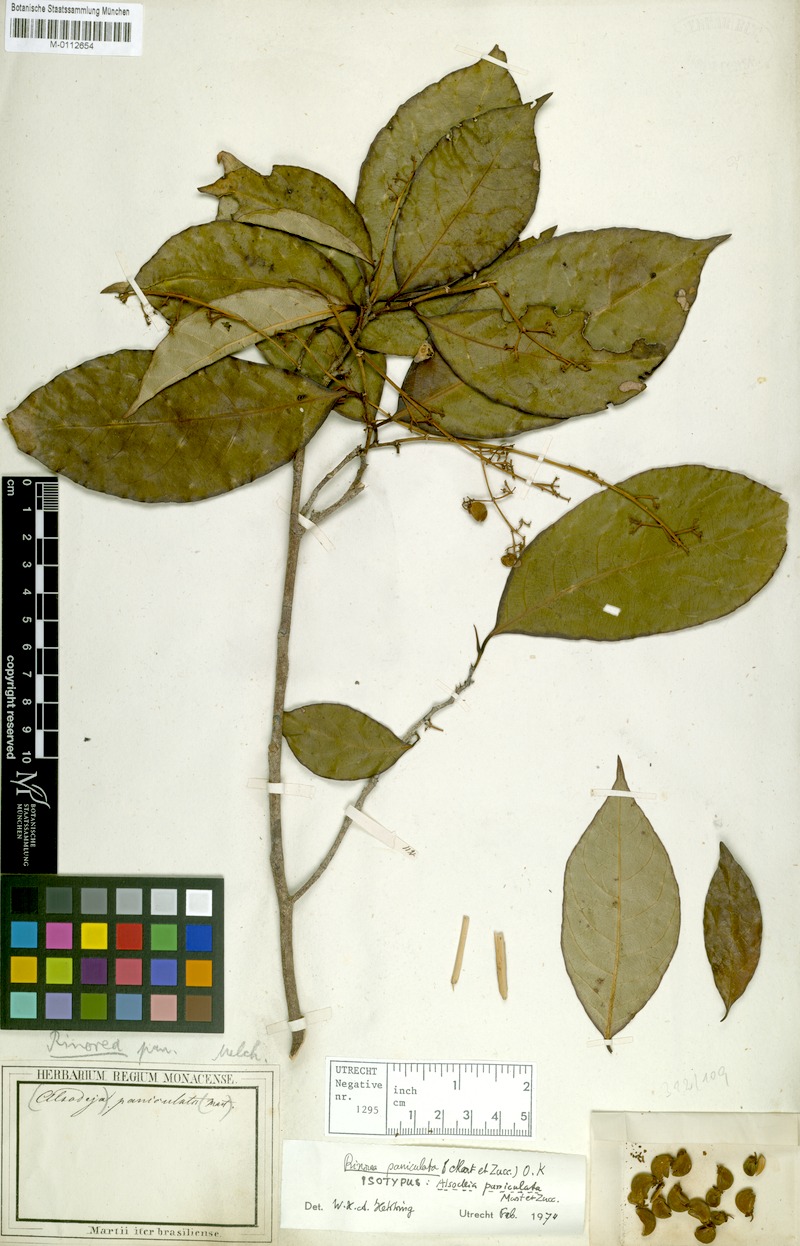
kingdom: Plantae
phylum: Tracheophyta
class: Magnoliopsida
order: Malpighiales
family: Violaceae
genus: Rinorea
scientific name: Rinorea paniculata
